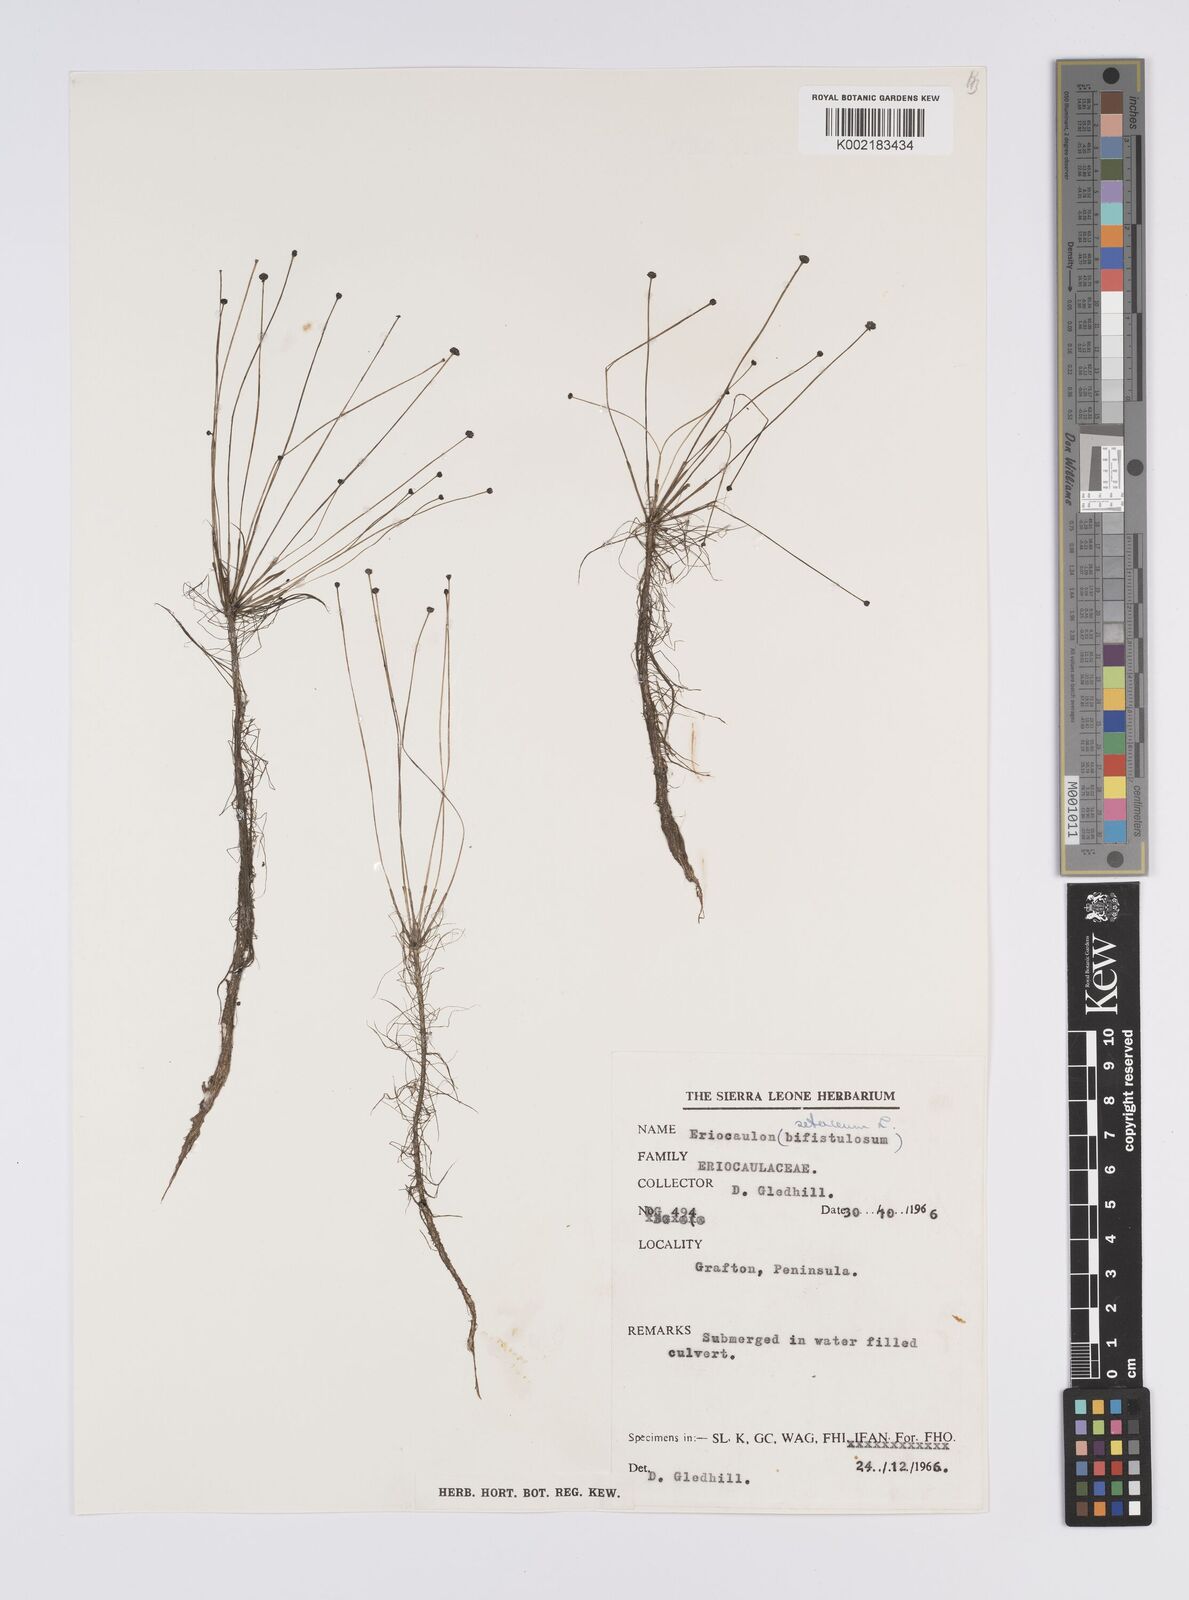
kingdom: Plantae
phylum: Tracheophyta
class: Liliopsida
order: Poales
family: Eriocaulaceae
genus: Eriocaulon
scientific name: Eriocaulon setaceum
